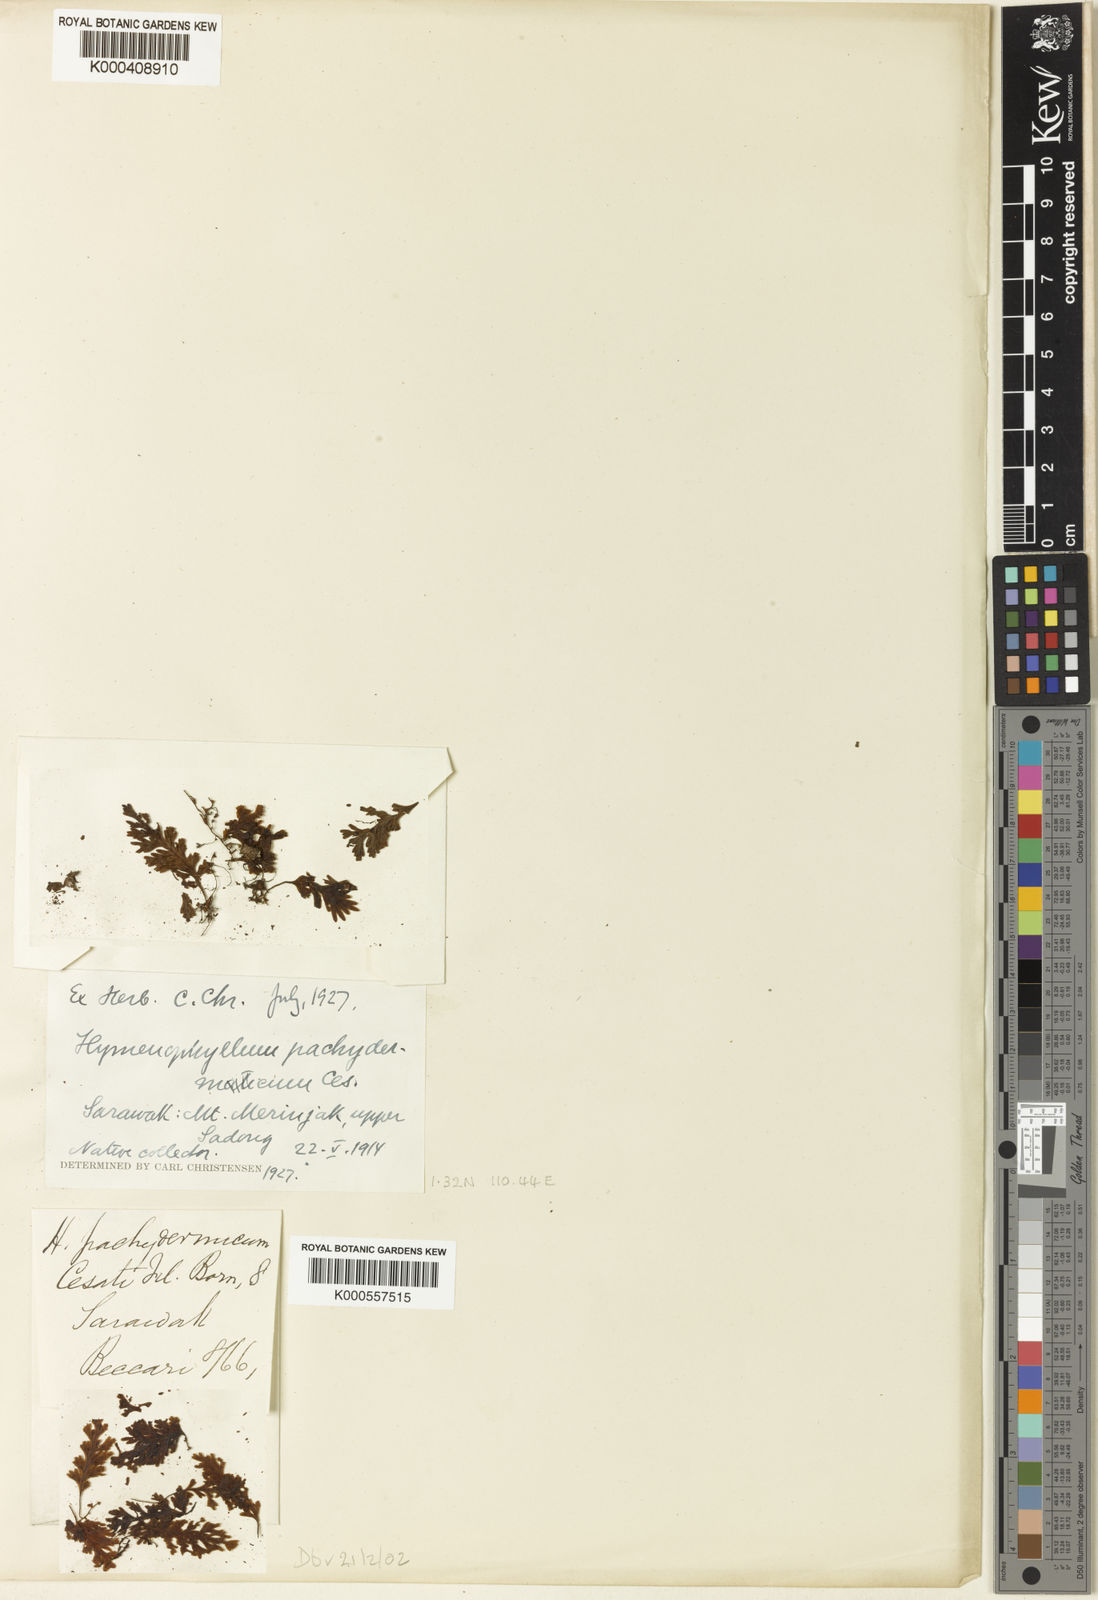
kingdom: Plantae
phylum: Tracheophyta
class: Polypodiopsida
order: Hymenophyllales
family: Hymenophyllaceae
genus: Hymenophyllum
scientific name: Hymenophyllum pachydermicum
